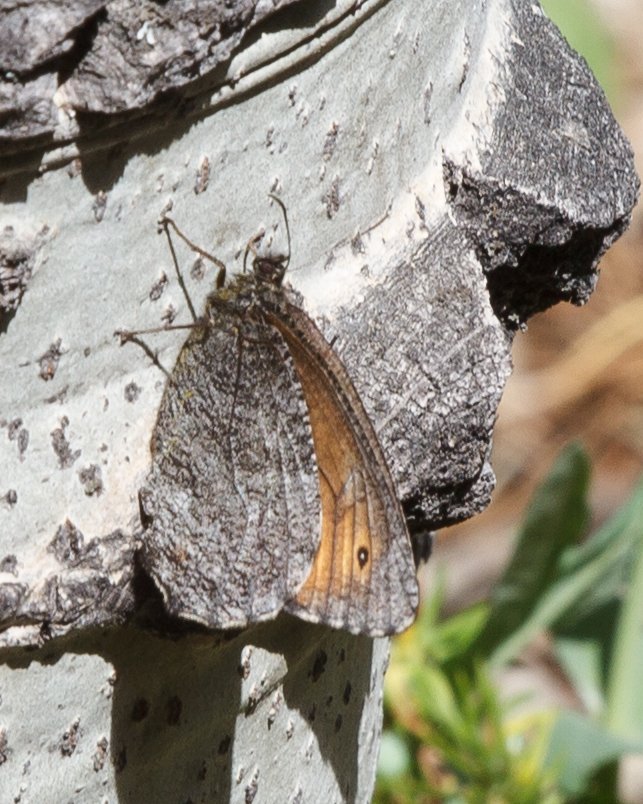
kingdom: Animalia
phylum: Arthropoda
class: Insecta
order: Lepidoptera
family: Nymphalidae
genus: Oeneis
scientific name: Oeneis jutta
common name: Jutta Arctic
